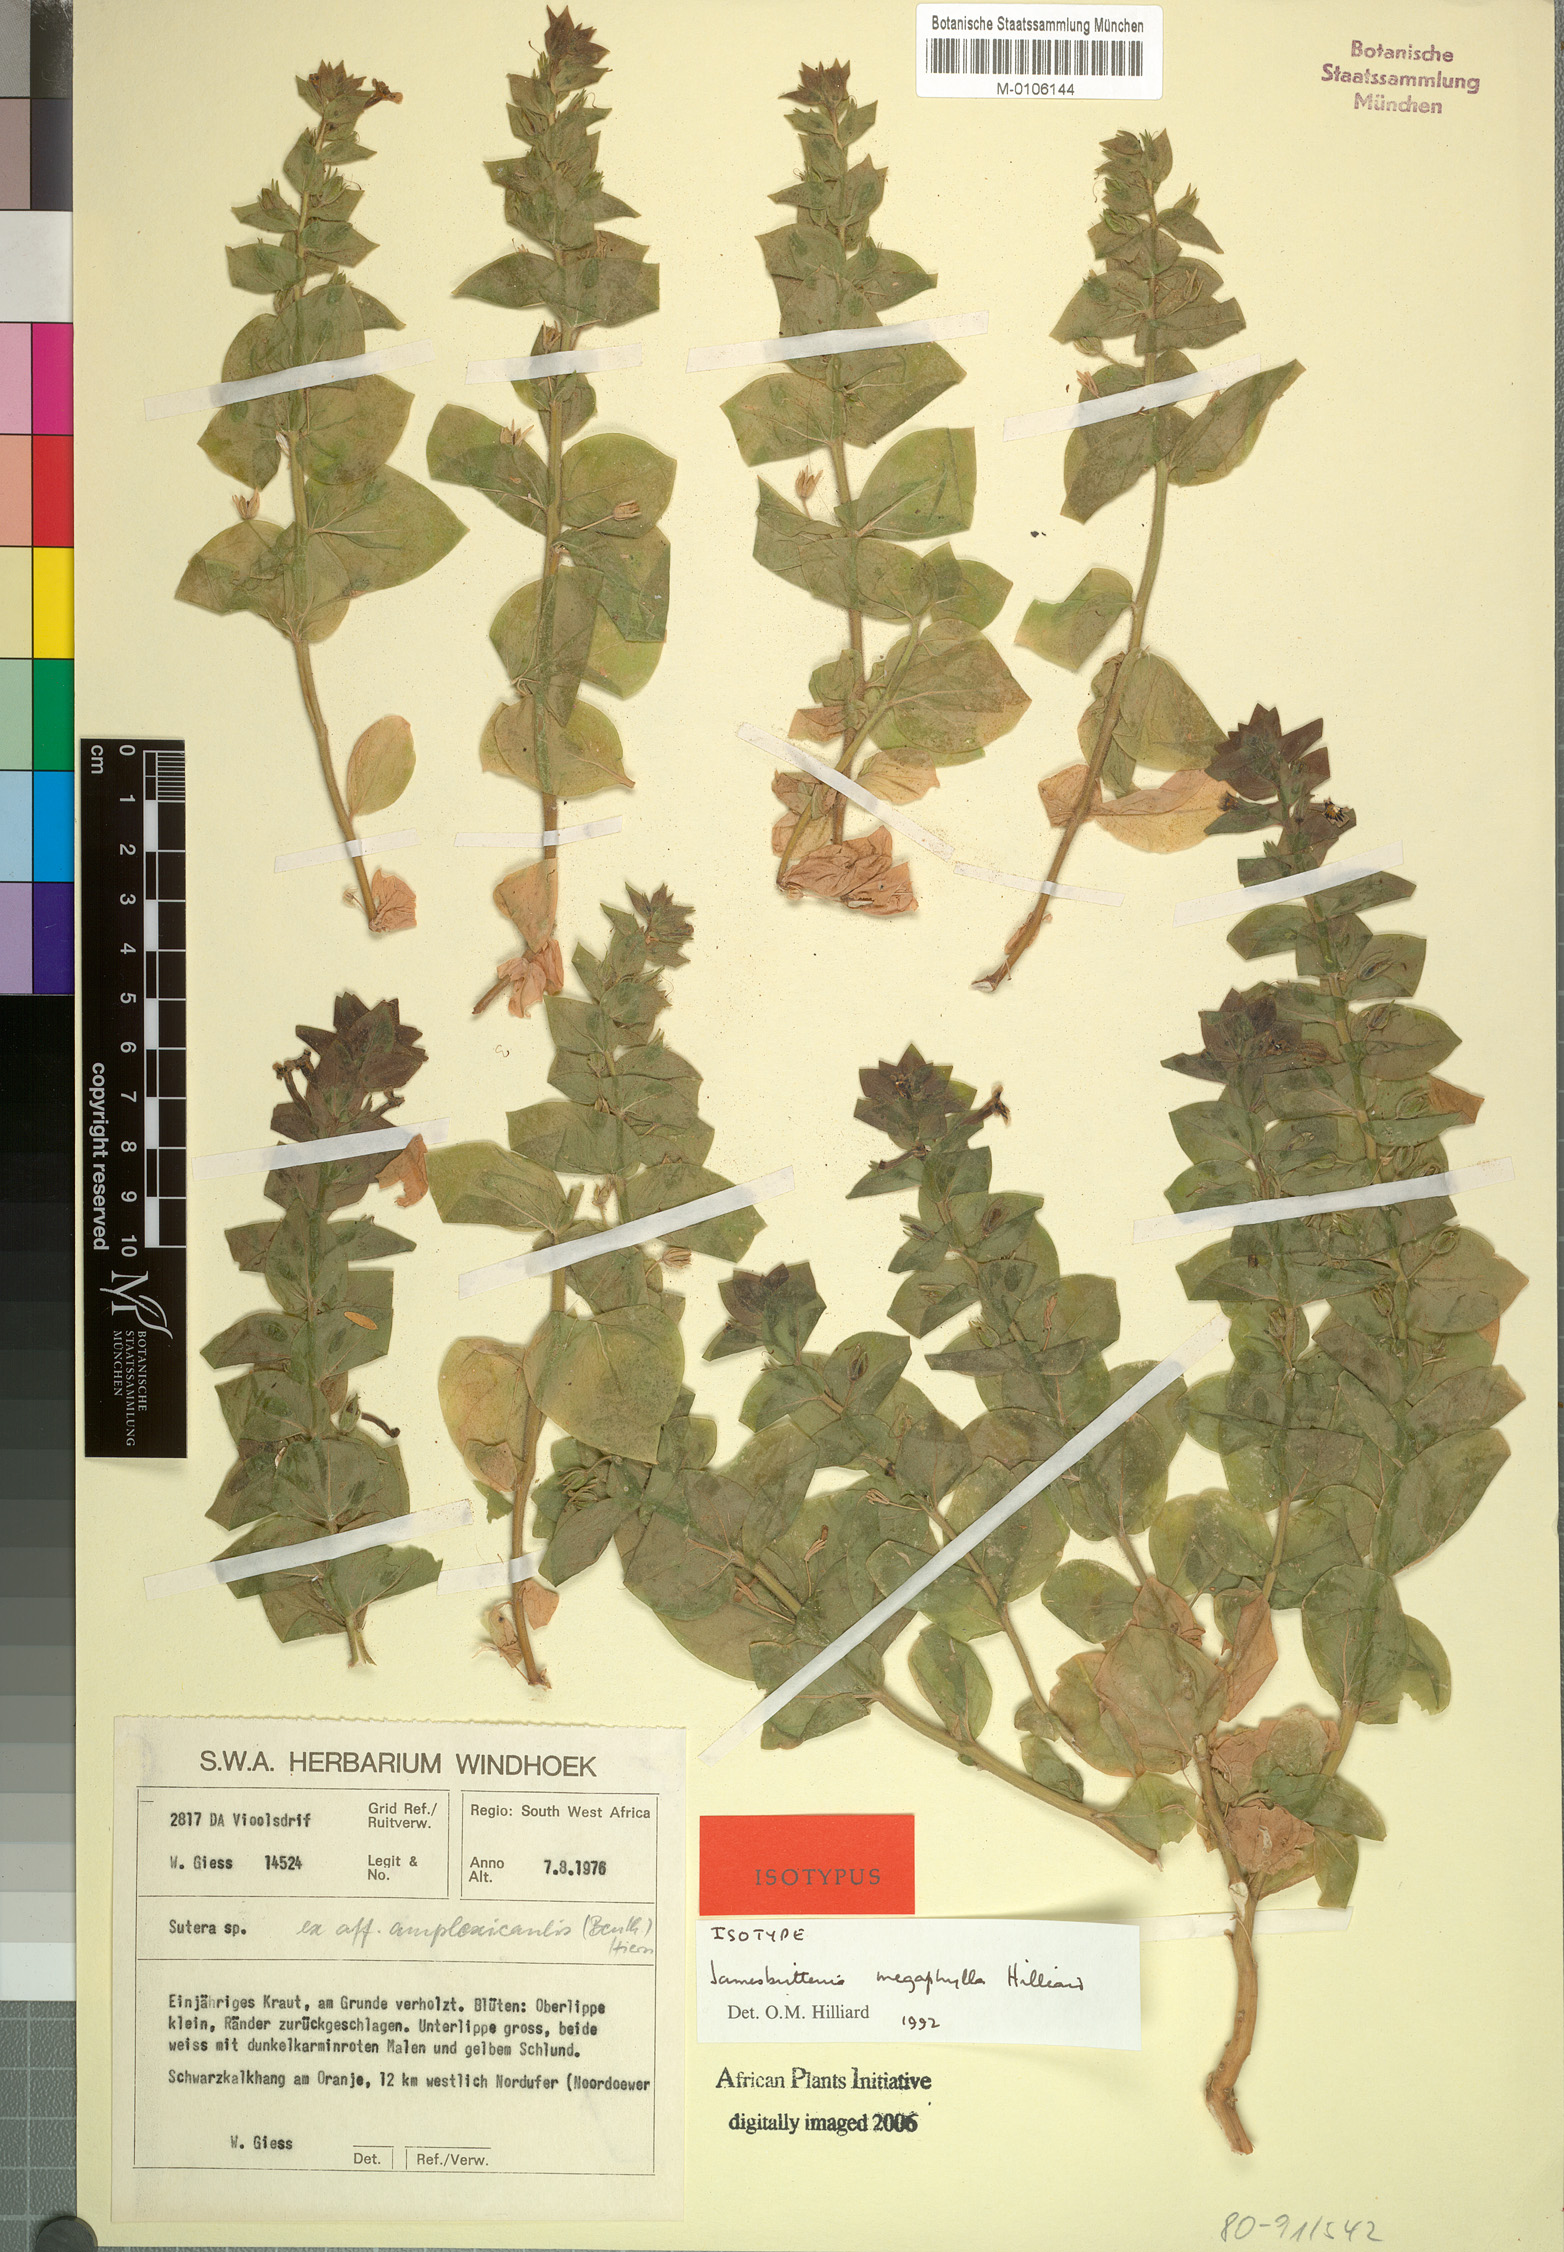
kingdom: Plantae
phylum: Tracheophyta
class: Magnoliopsida
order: Lamiales
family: Scrophulariaceae
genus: Jamesbrittenia
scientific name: Jamesbrittenia megaphylla
